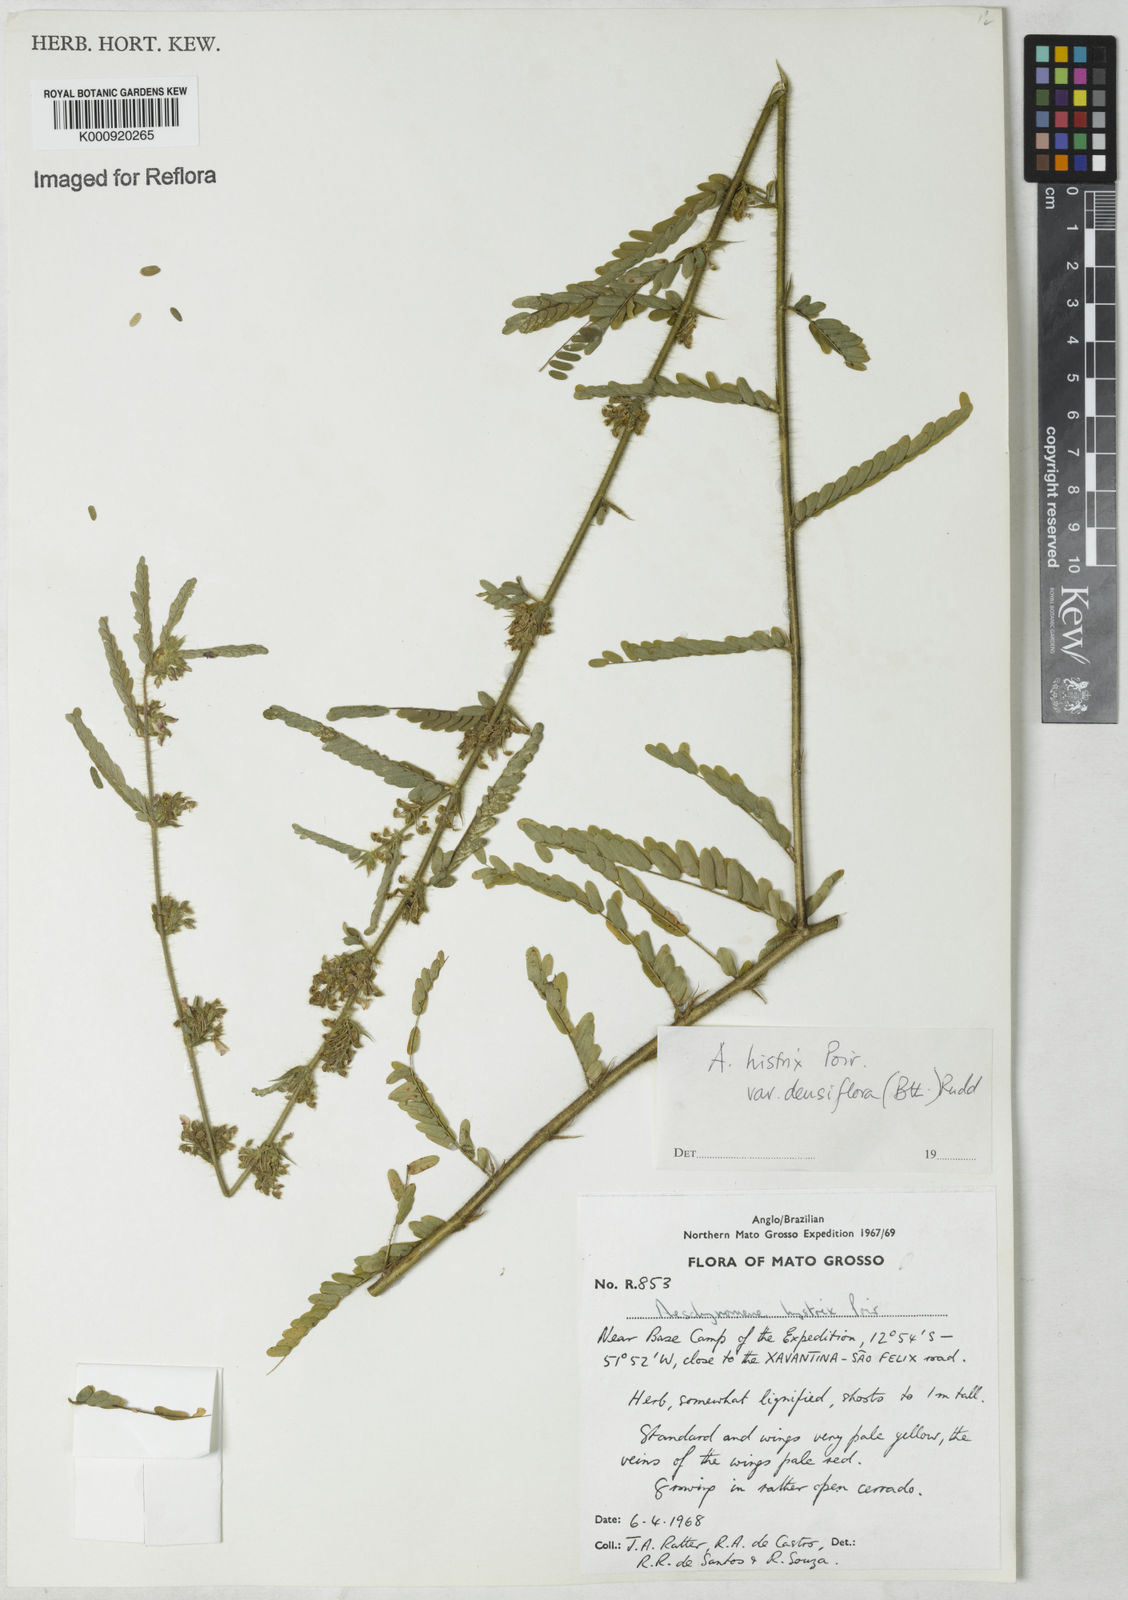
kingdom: Plantae
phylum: Tracheophyta
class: Magnoliopsida
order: Fabales
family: Fabaceae
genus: Ctenodon
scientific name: Ctenodon histrix
